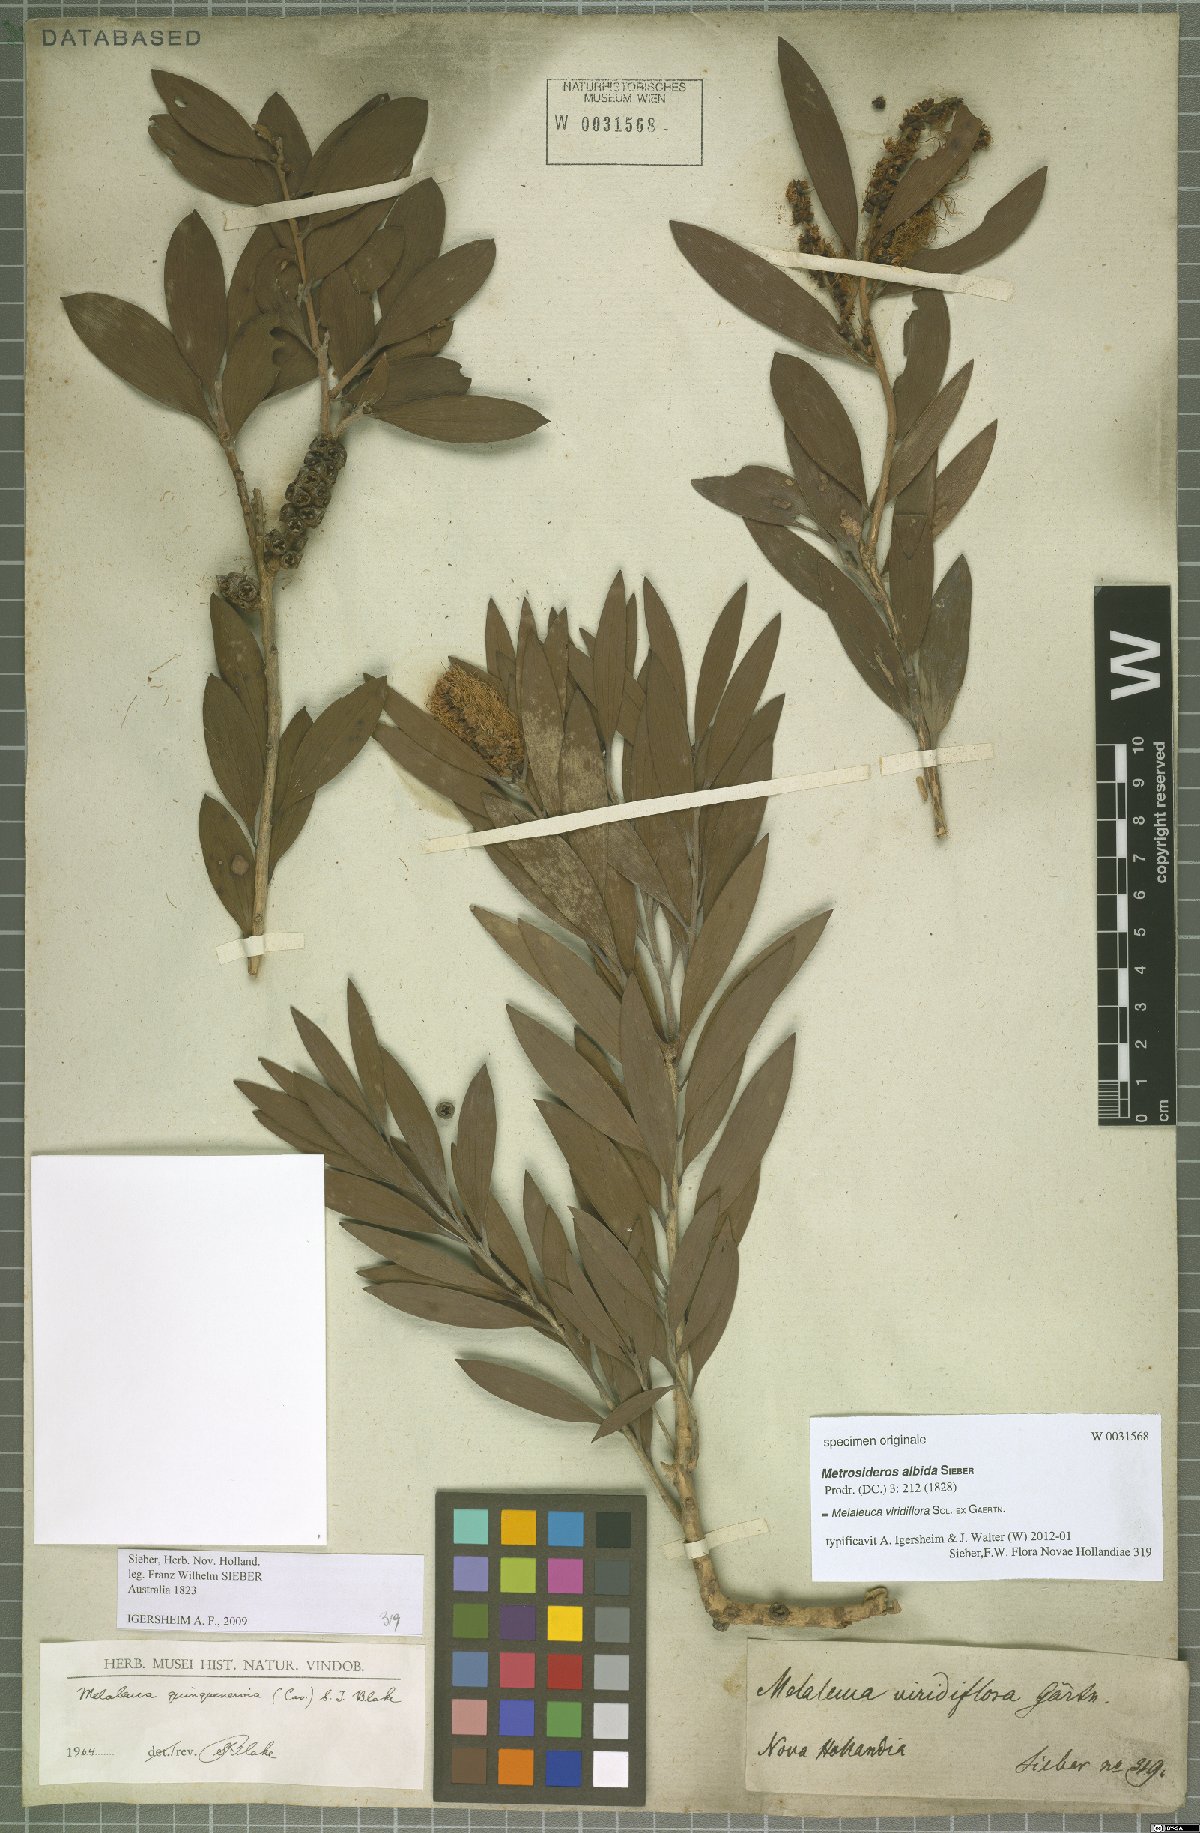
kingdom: Plantae
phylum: Tracheophyta
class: Magnoliopsida
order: Myrtales
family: Myrtaceae
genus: Melaleuca
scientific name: Melaleuca viridiflora
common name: Brown-leaved paperbark
